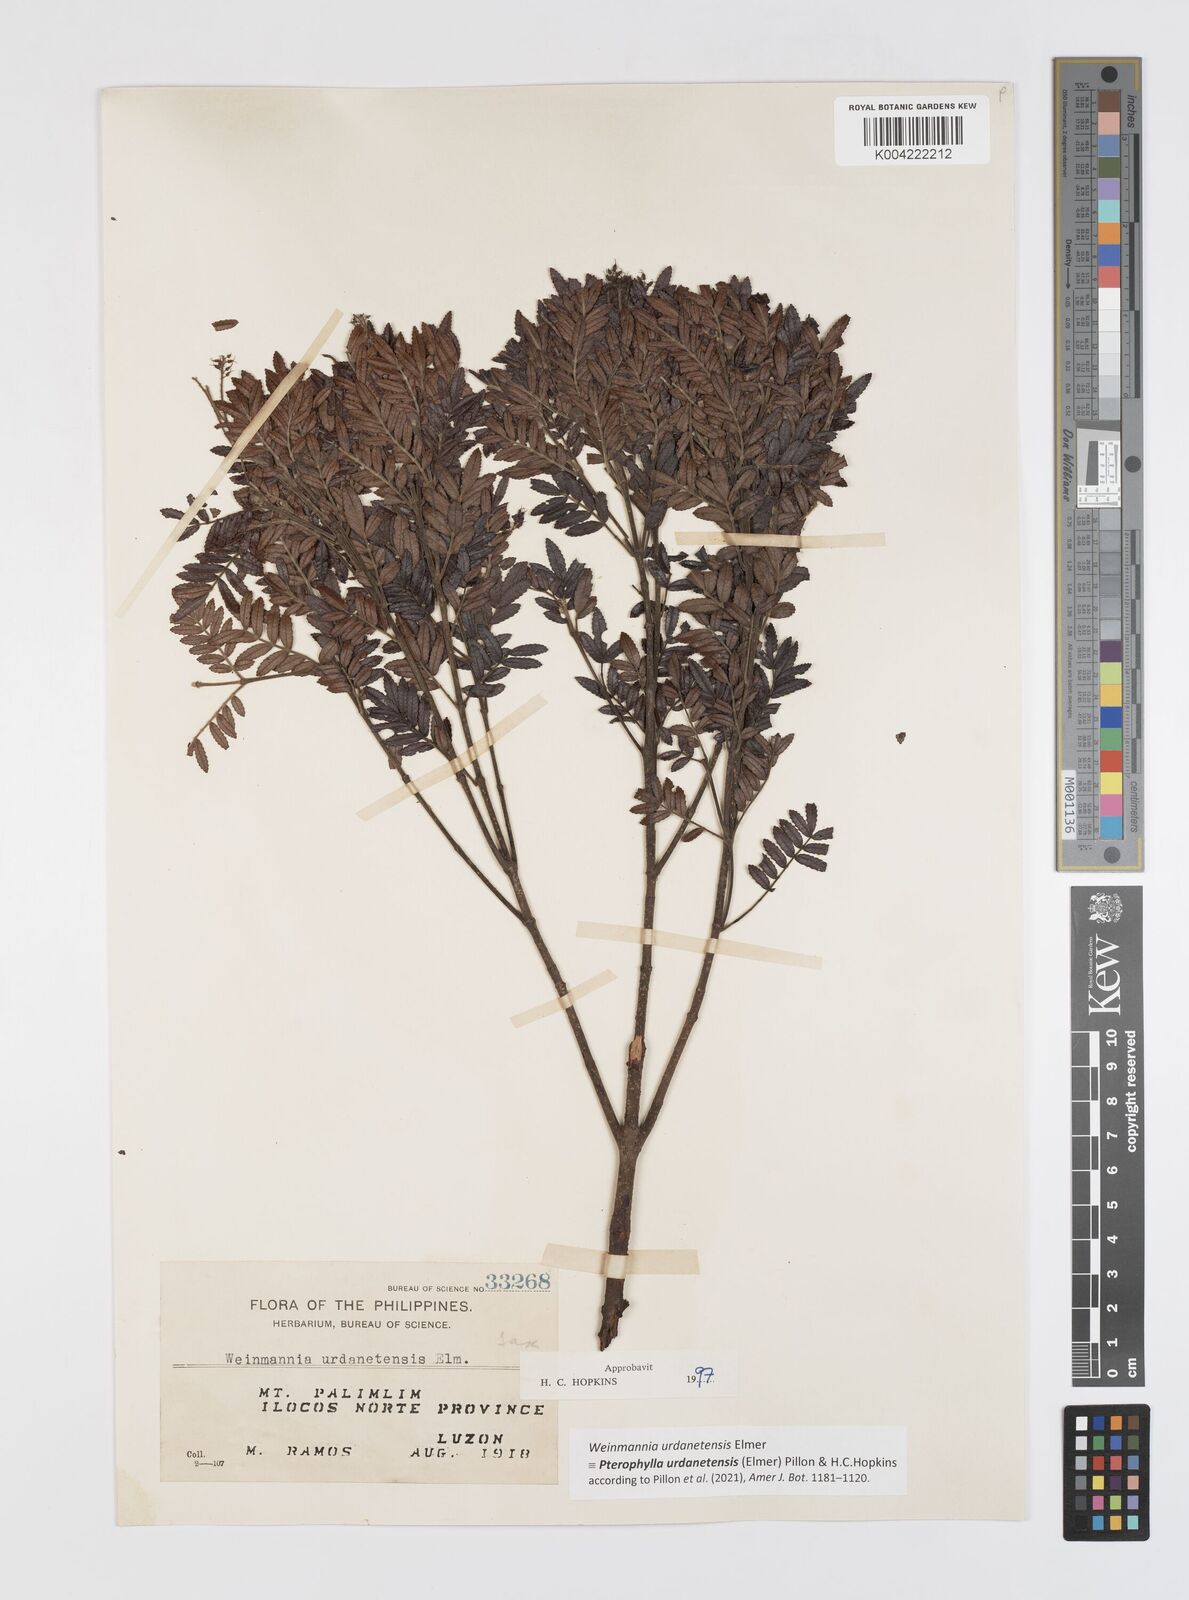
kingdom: Plantae
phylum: Tracheophyta
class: Magnoliopsida
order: Oxalidales
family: Cunoniaceae
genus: Pterophylla
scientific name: Pterophylla urdanetensis
